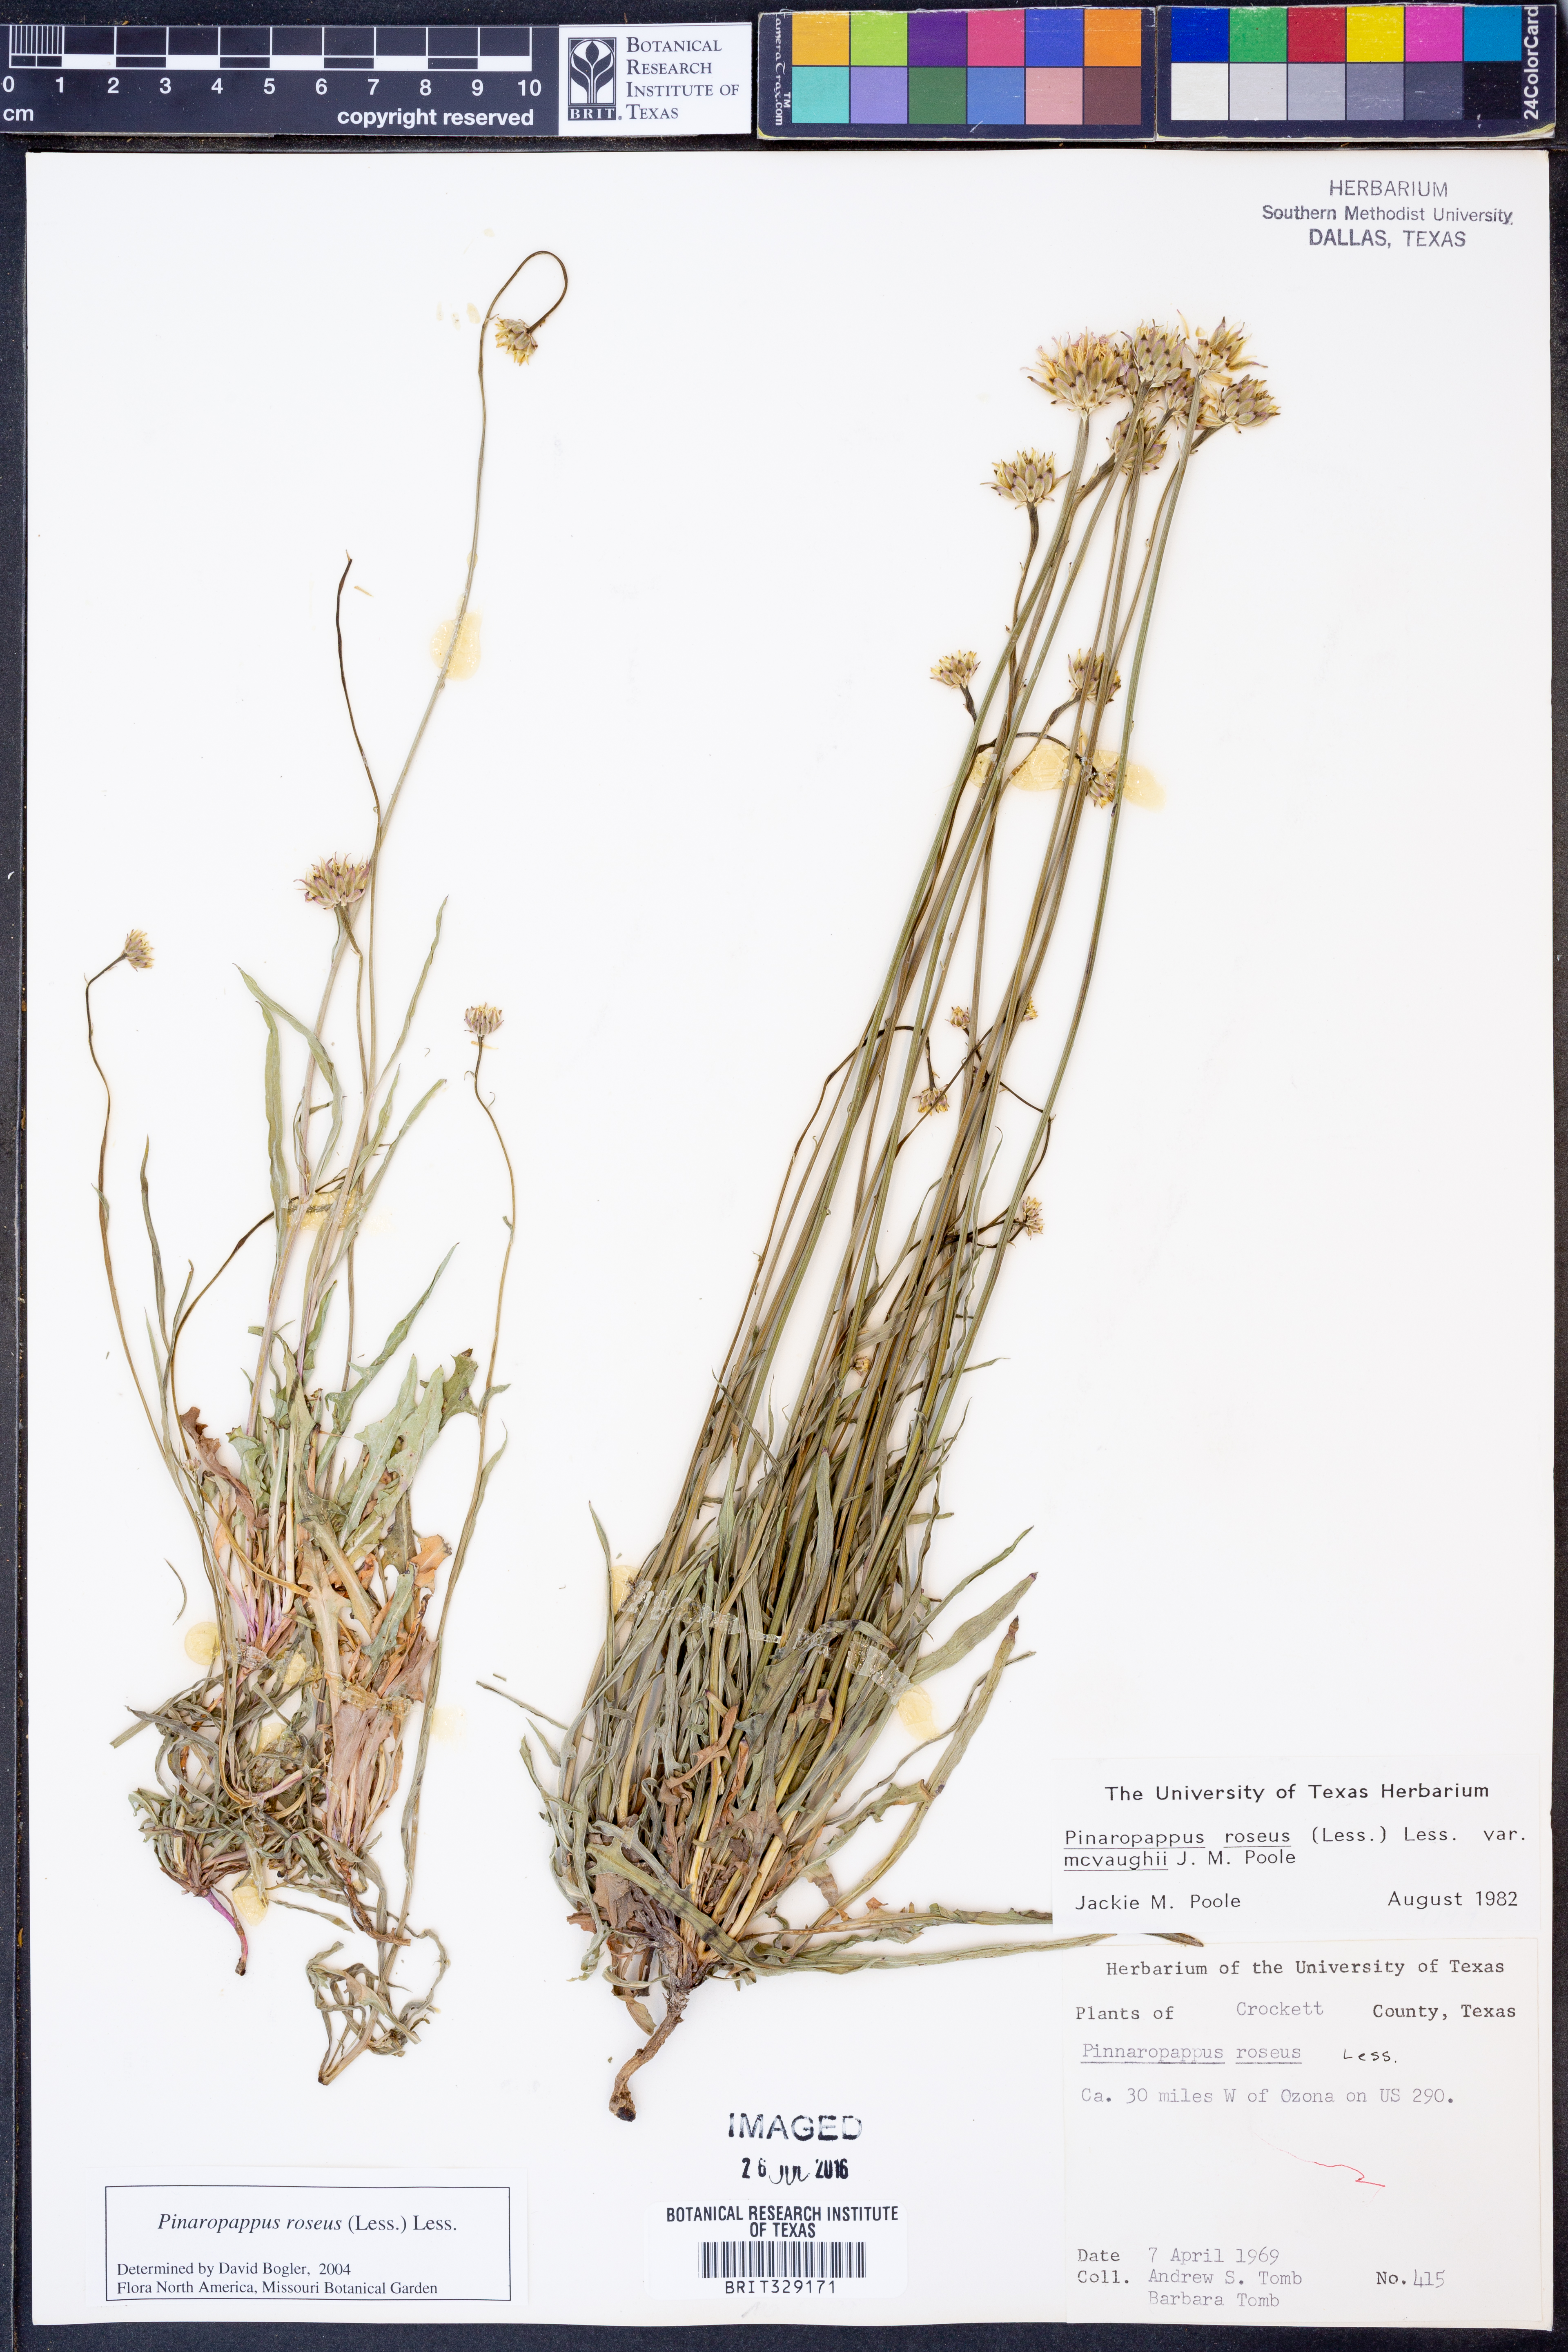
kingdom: Plantae
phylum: Tracheophyta
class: Magnoliopsida
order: Asterales
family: Asteraceae
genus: Pinaropappus
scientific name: Pinaropappus roseus
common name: Rock-lettuce
